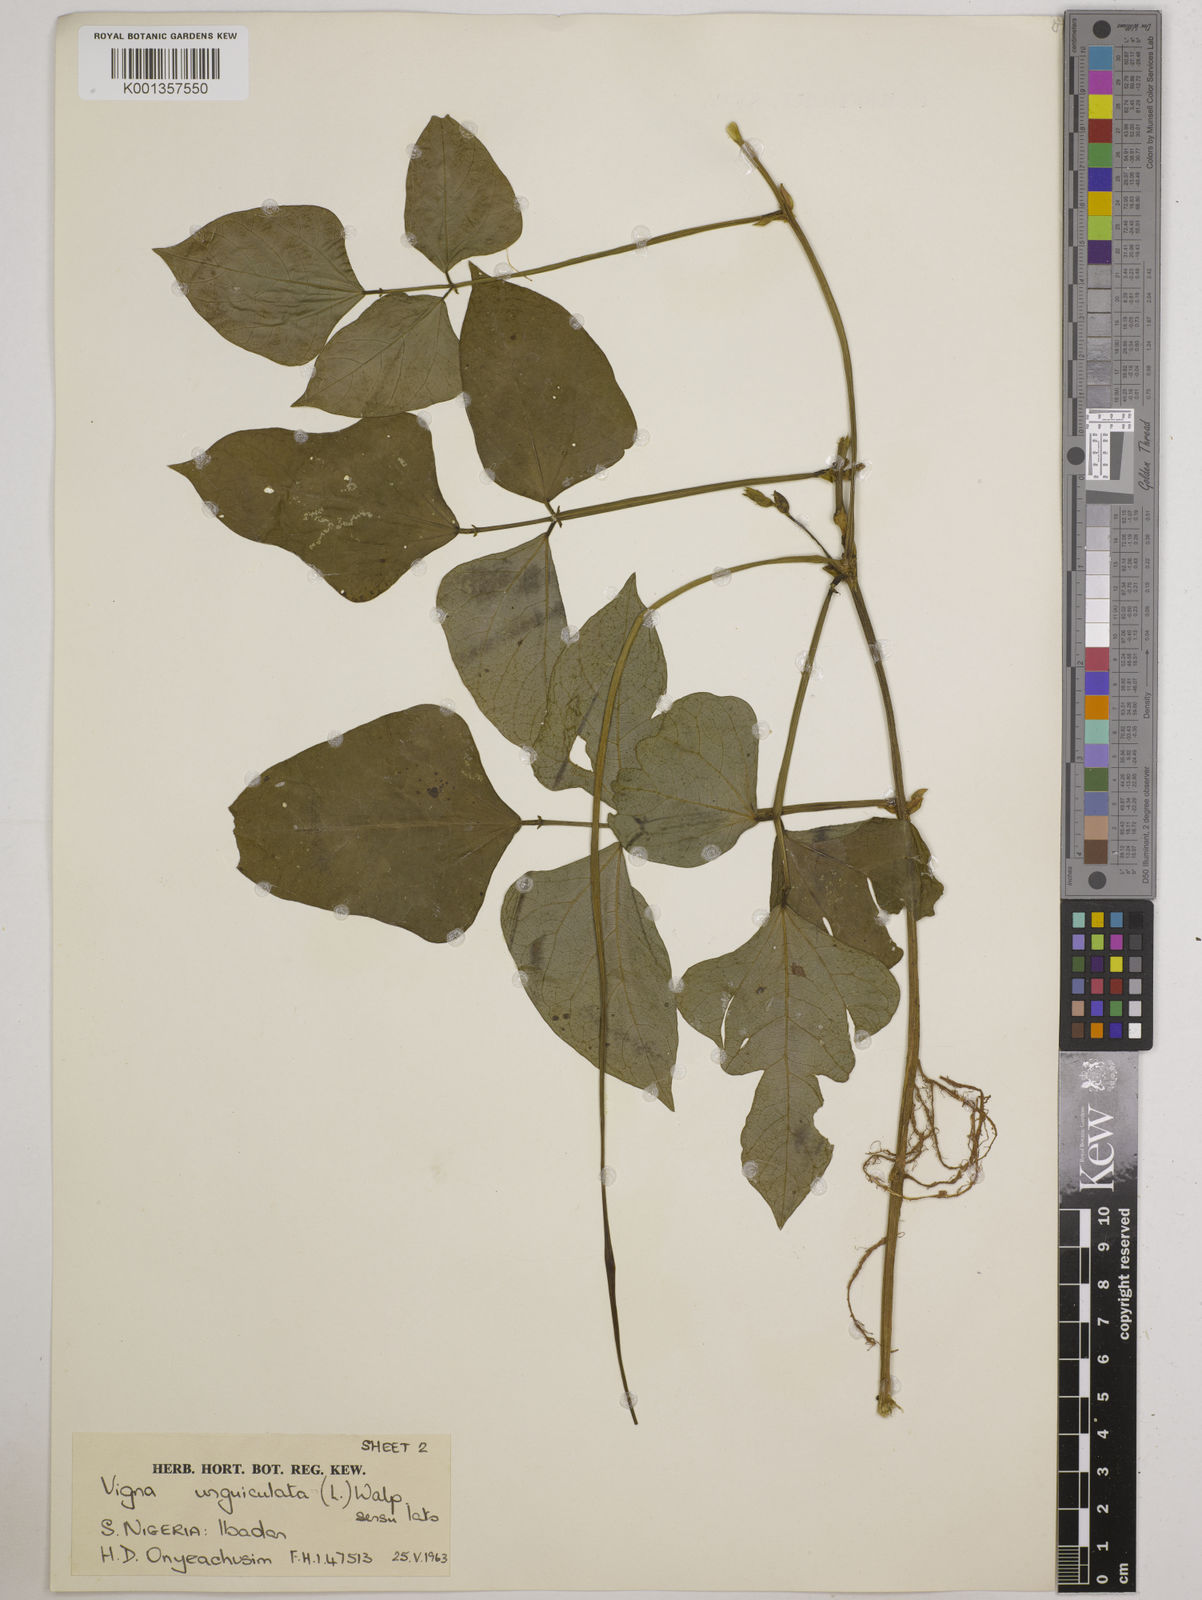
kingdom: Plantae
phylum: Tracheophyta
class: Magnoliopsida
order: Fabales
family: Fabaceae
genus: Vigna
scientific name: Vigna
